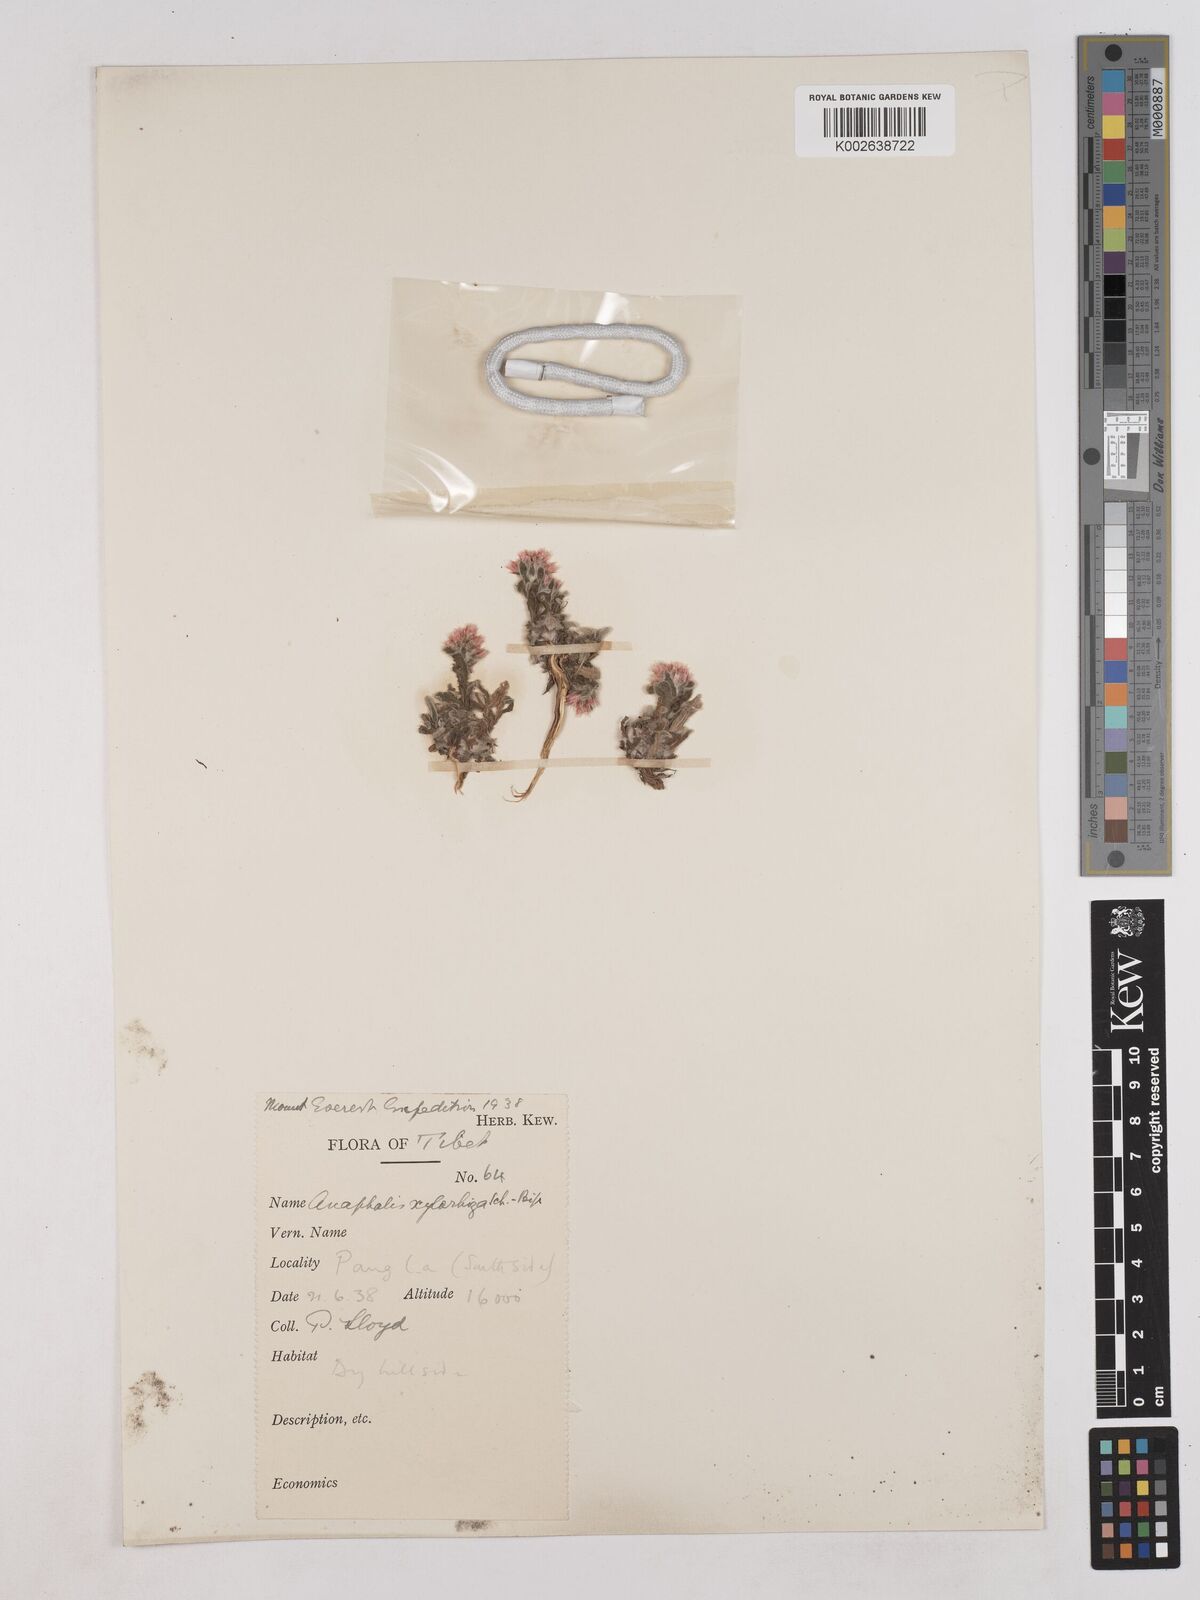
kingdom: Plantae
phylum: Tracheophyta
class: Magnoliopsida
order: Asterales
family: Asteraceae
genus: Anaphalis
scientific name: Anaphalis xylorhiza
